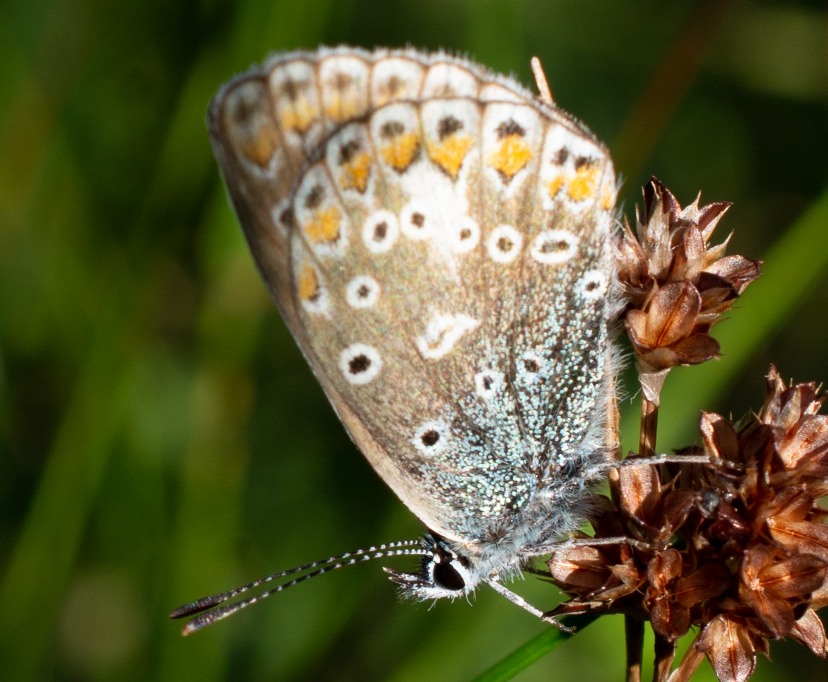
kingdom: Animalia
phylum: Arthropoda
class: Insecta
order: Lepidoptera
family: Lycaenidae
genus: Polyommatus
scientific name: Polyommatus icarus
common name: Almindelig blåfugl
